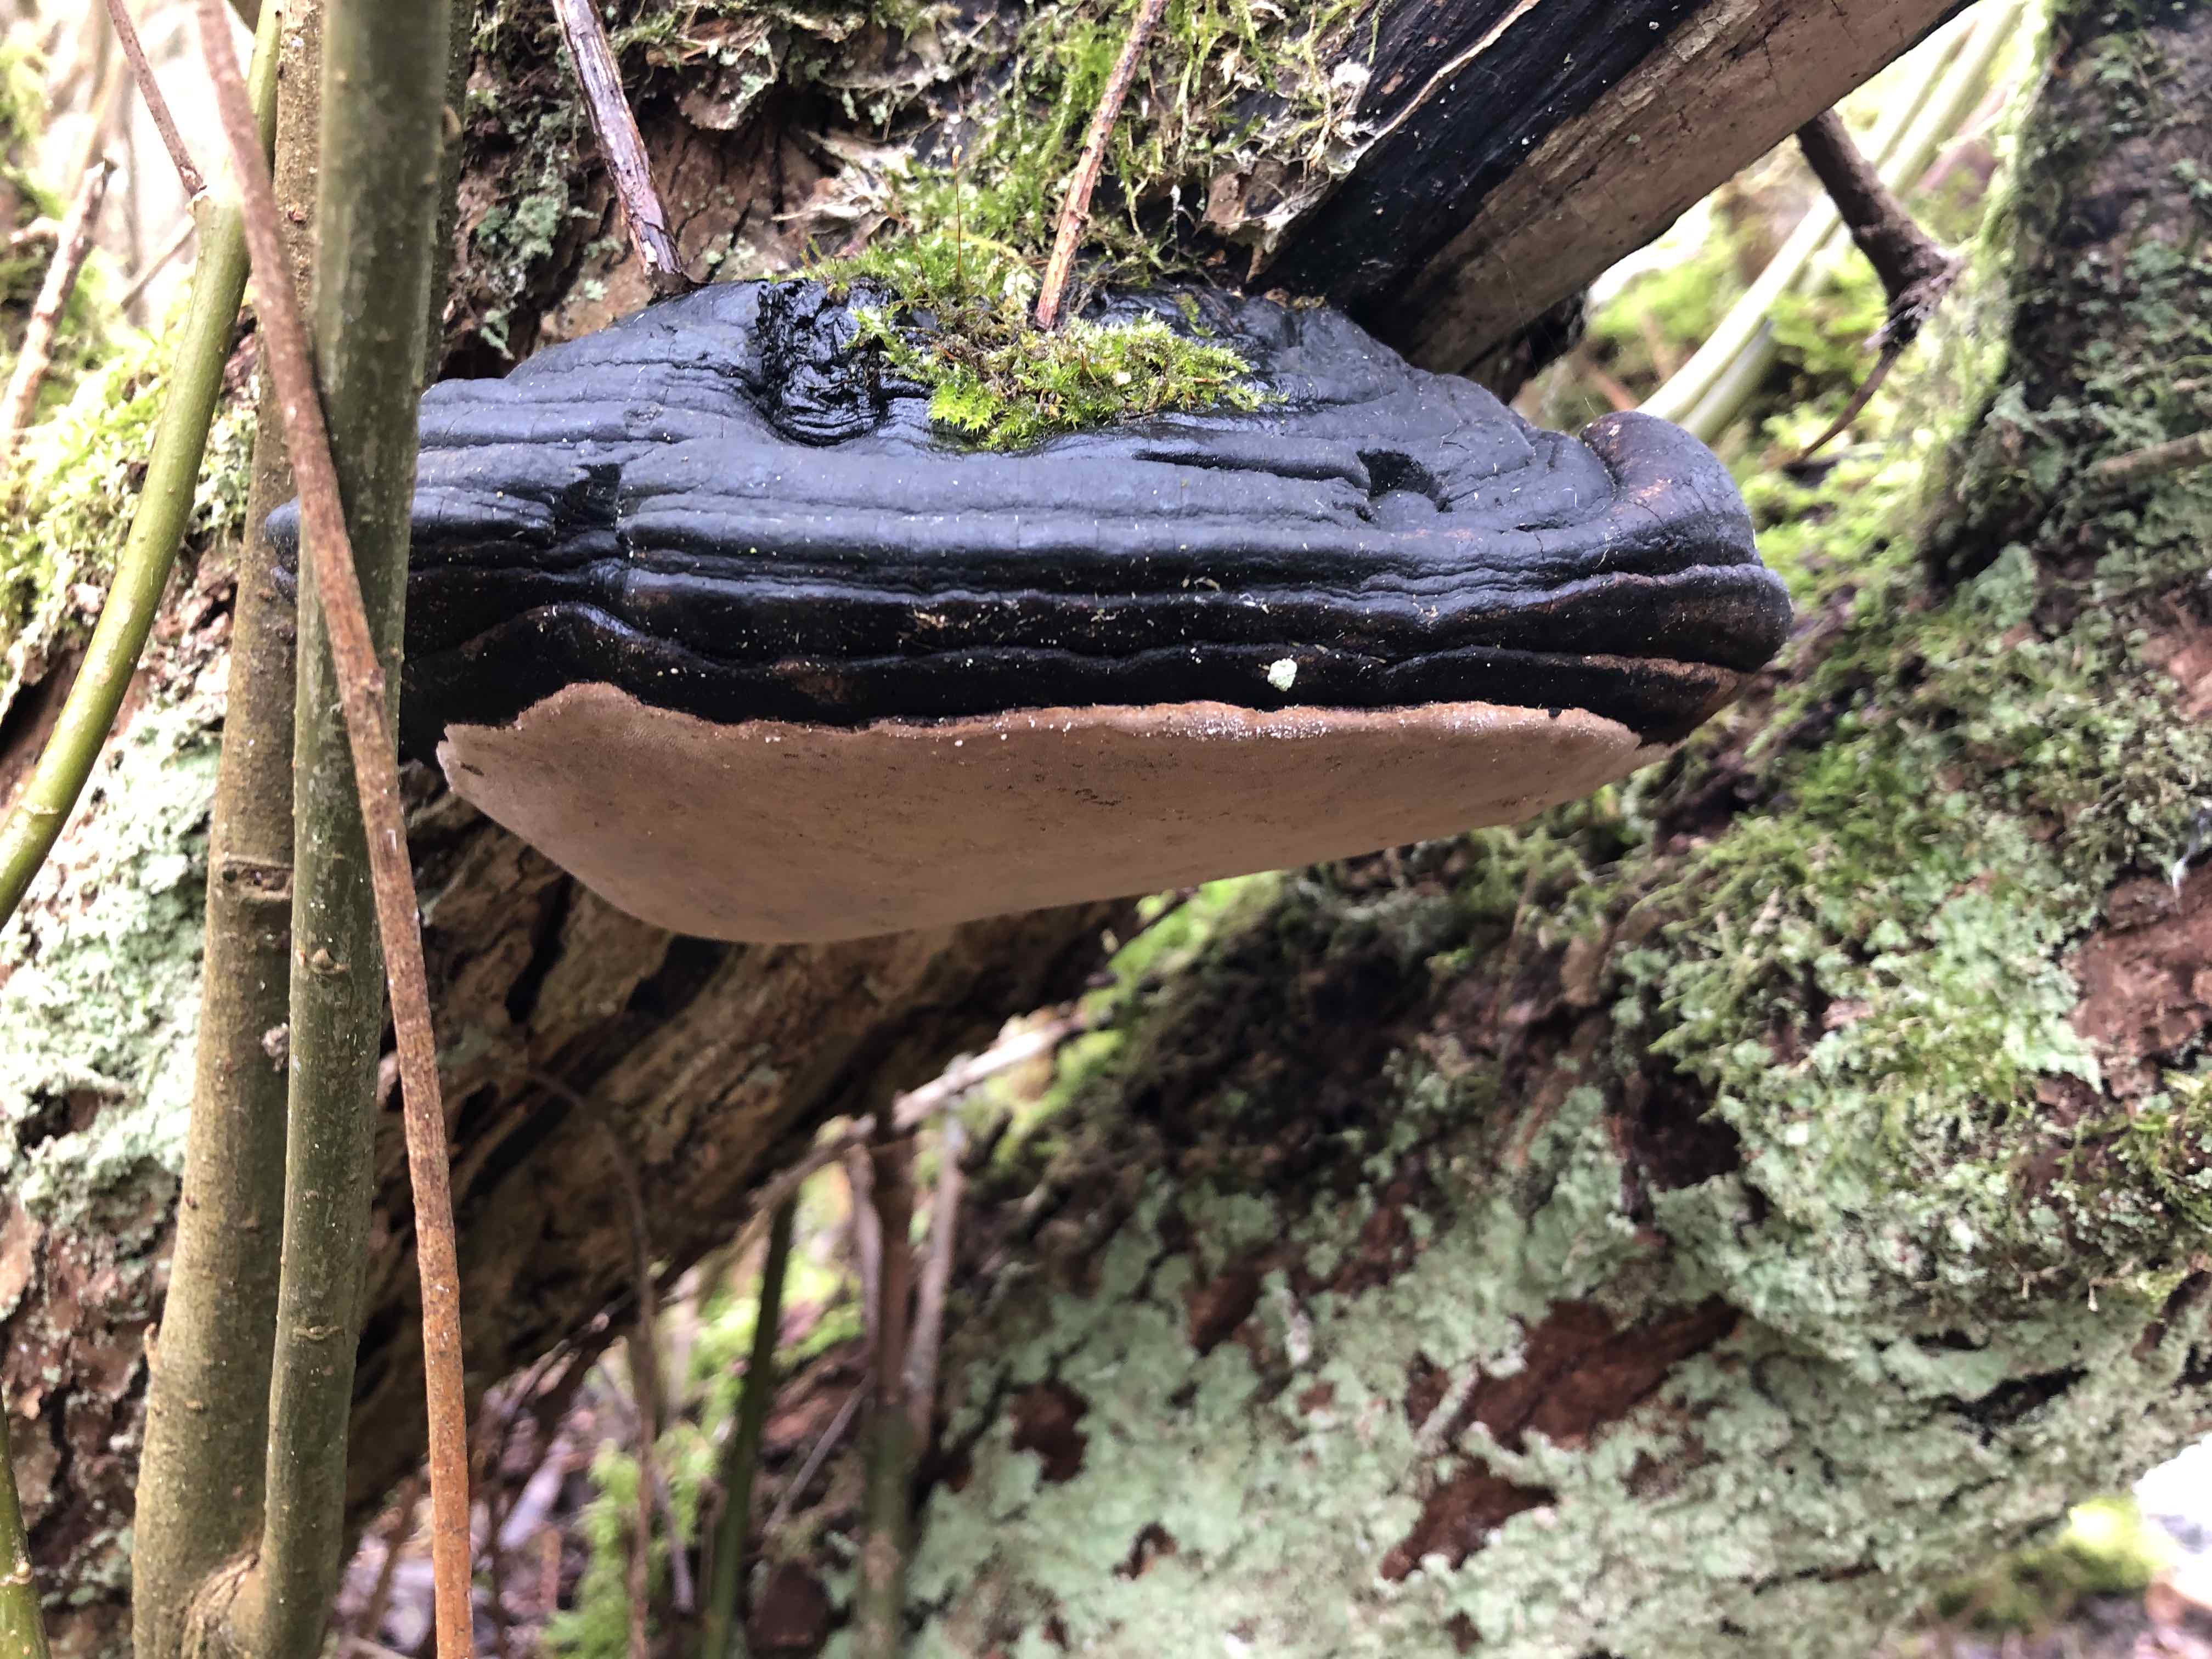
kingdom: Fungi
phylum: Basidiomycota
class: Agaricomycetes
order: Hymenochaetales
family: Hymenochaetaceae
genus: Phellinus
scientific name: Phellinus igniarius
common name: almindelig ildporesvamp
